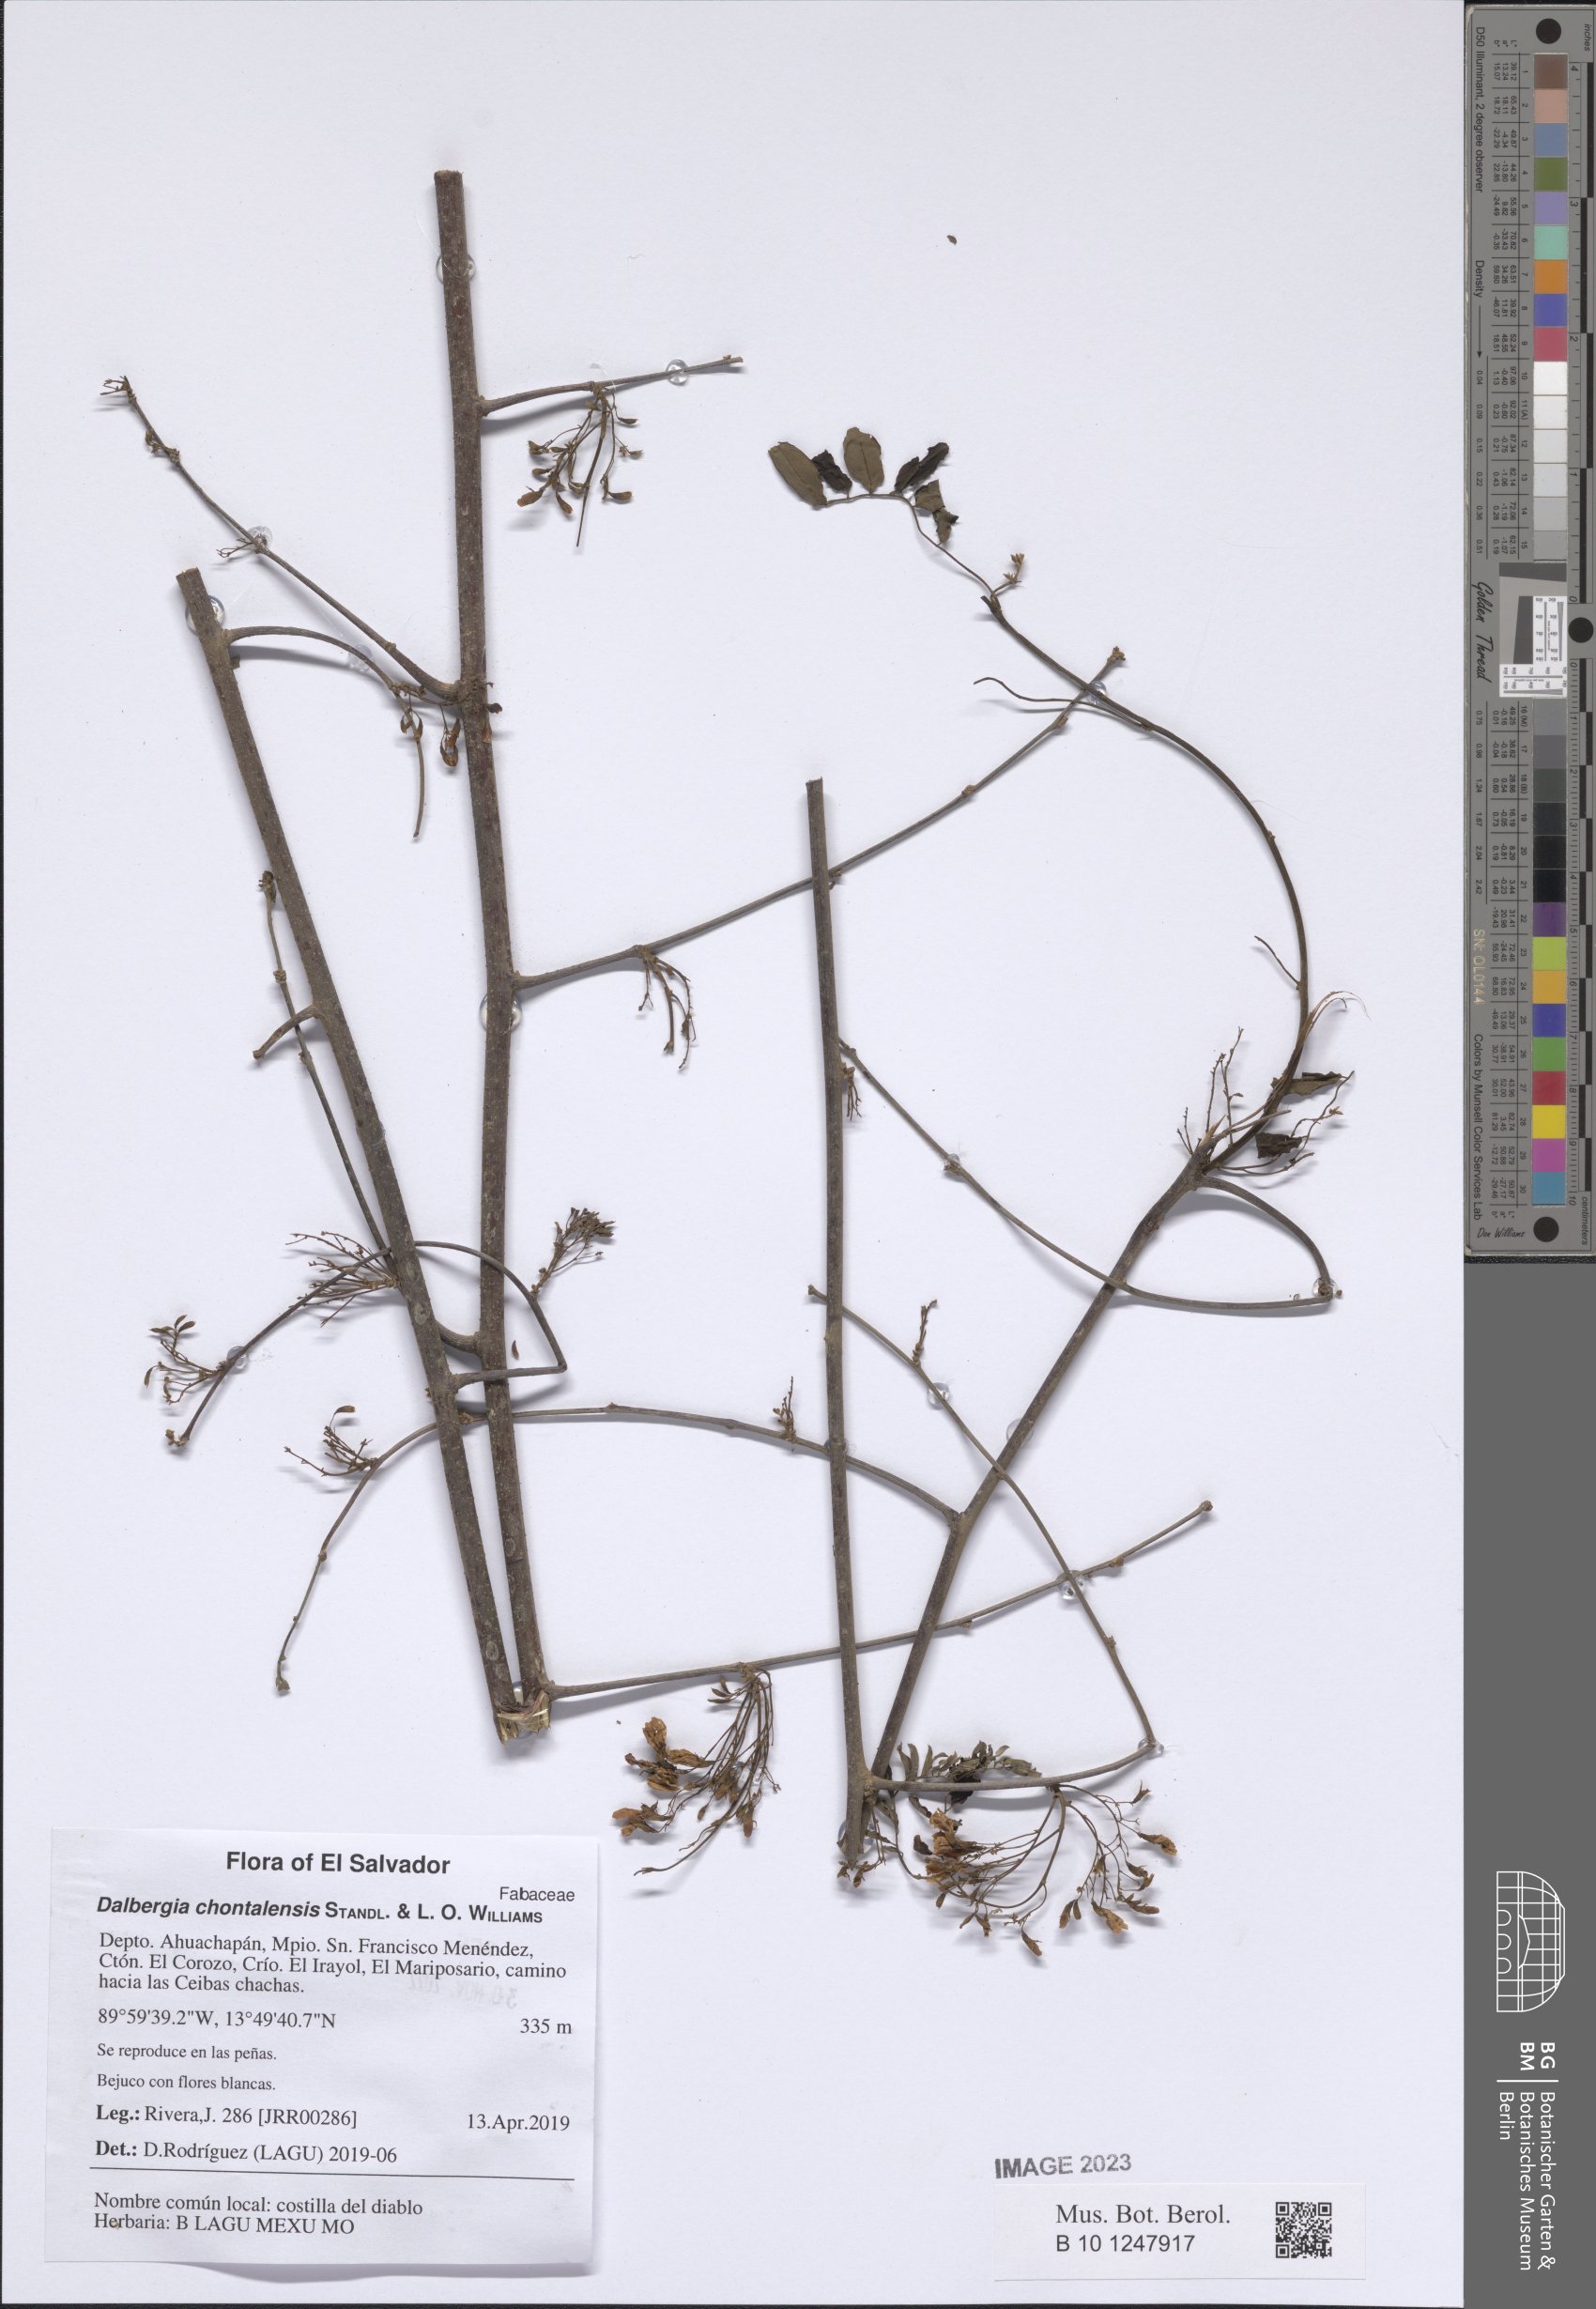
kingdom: Plantae
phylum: Tracheophyta
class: Magnoliopsida
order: Fabales
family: Fabaceae
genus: Dalbergia
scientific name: Dalbergia chontalensis
